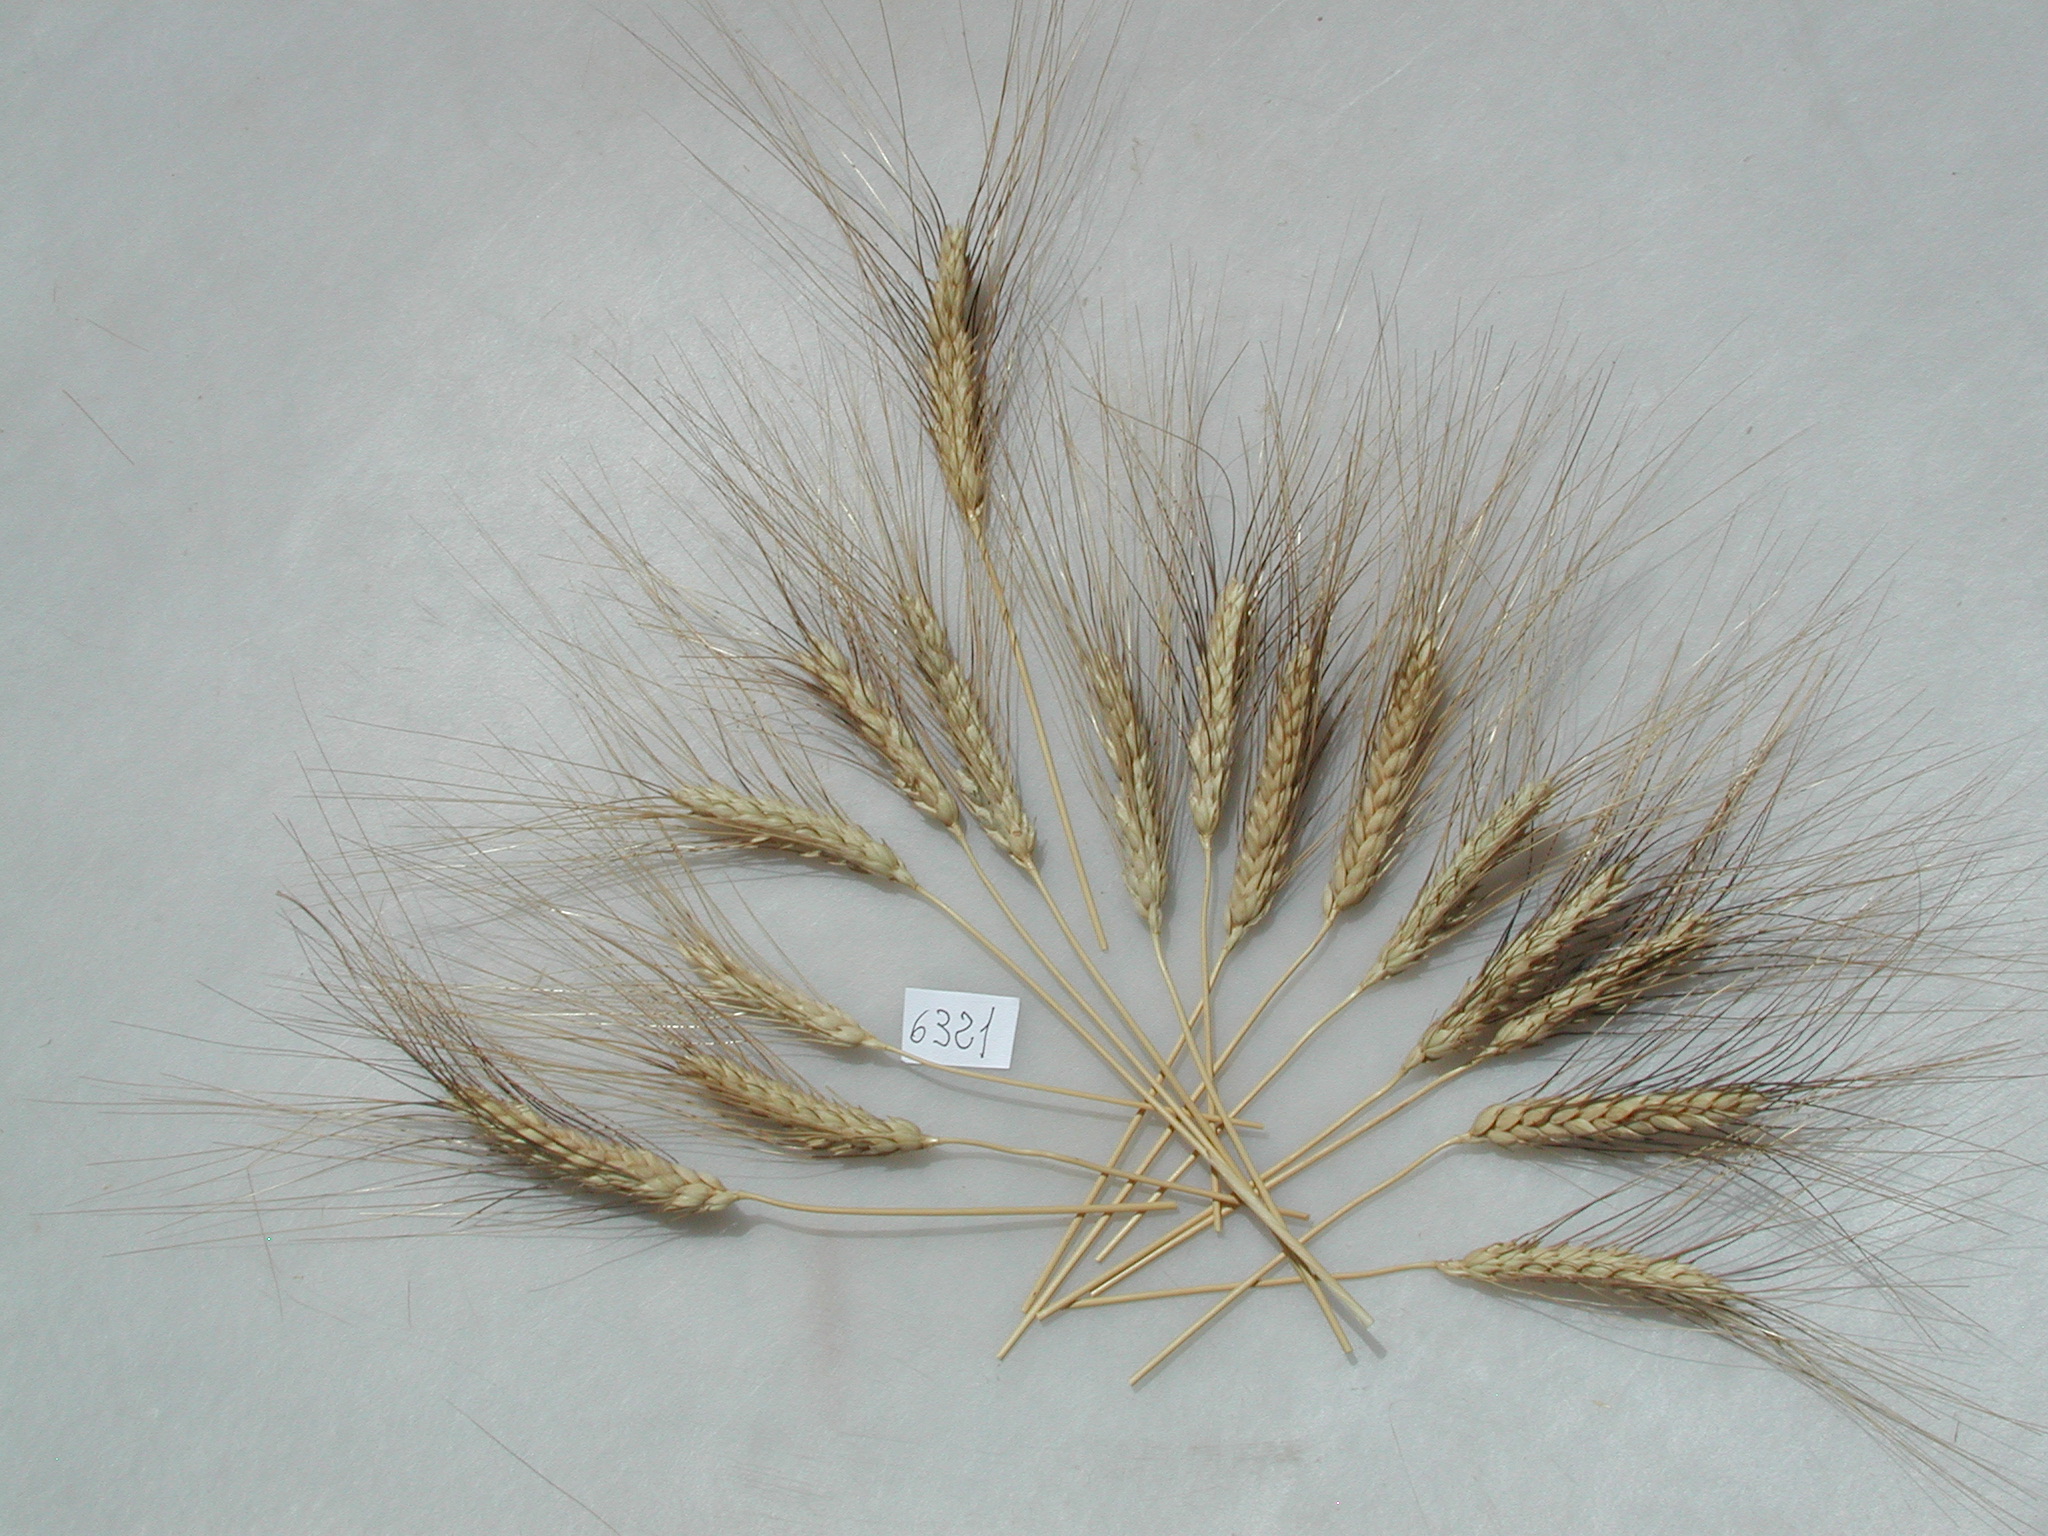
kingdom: Plantae
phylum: Tracheophyta
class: Liliopsida
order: Poales
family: Poaceae
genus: Triticum
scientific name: Triticum aestivum
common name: Wheat
